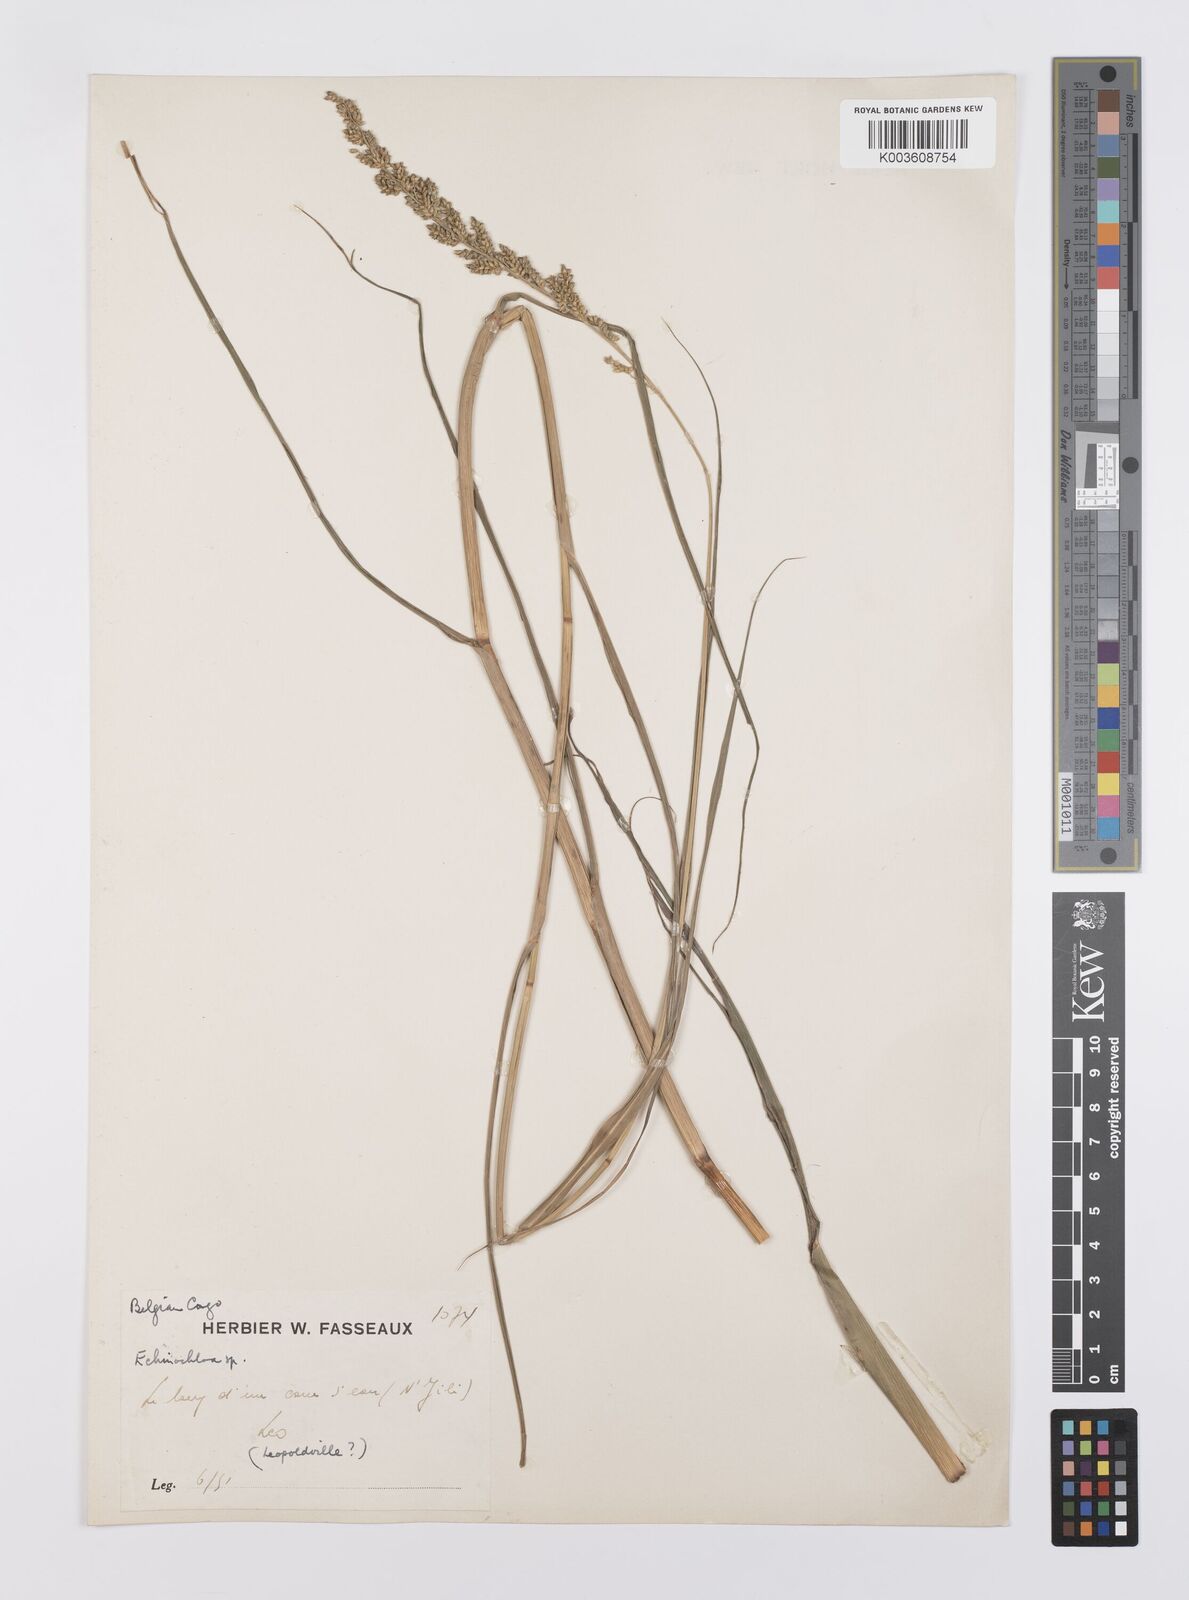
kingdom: Plantae
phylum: Tracheophyta
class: Liliopsida
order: Poales
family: Poaceae
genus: Echinochloa
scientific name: Echinochloa pyramidalis
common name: Antelope grass
